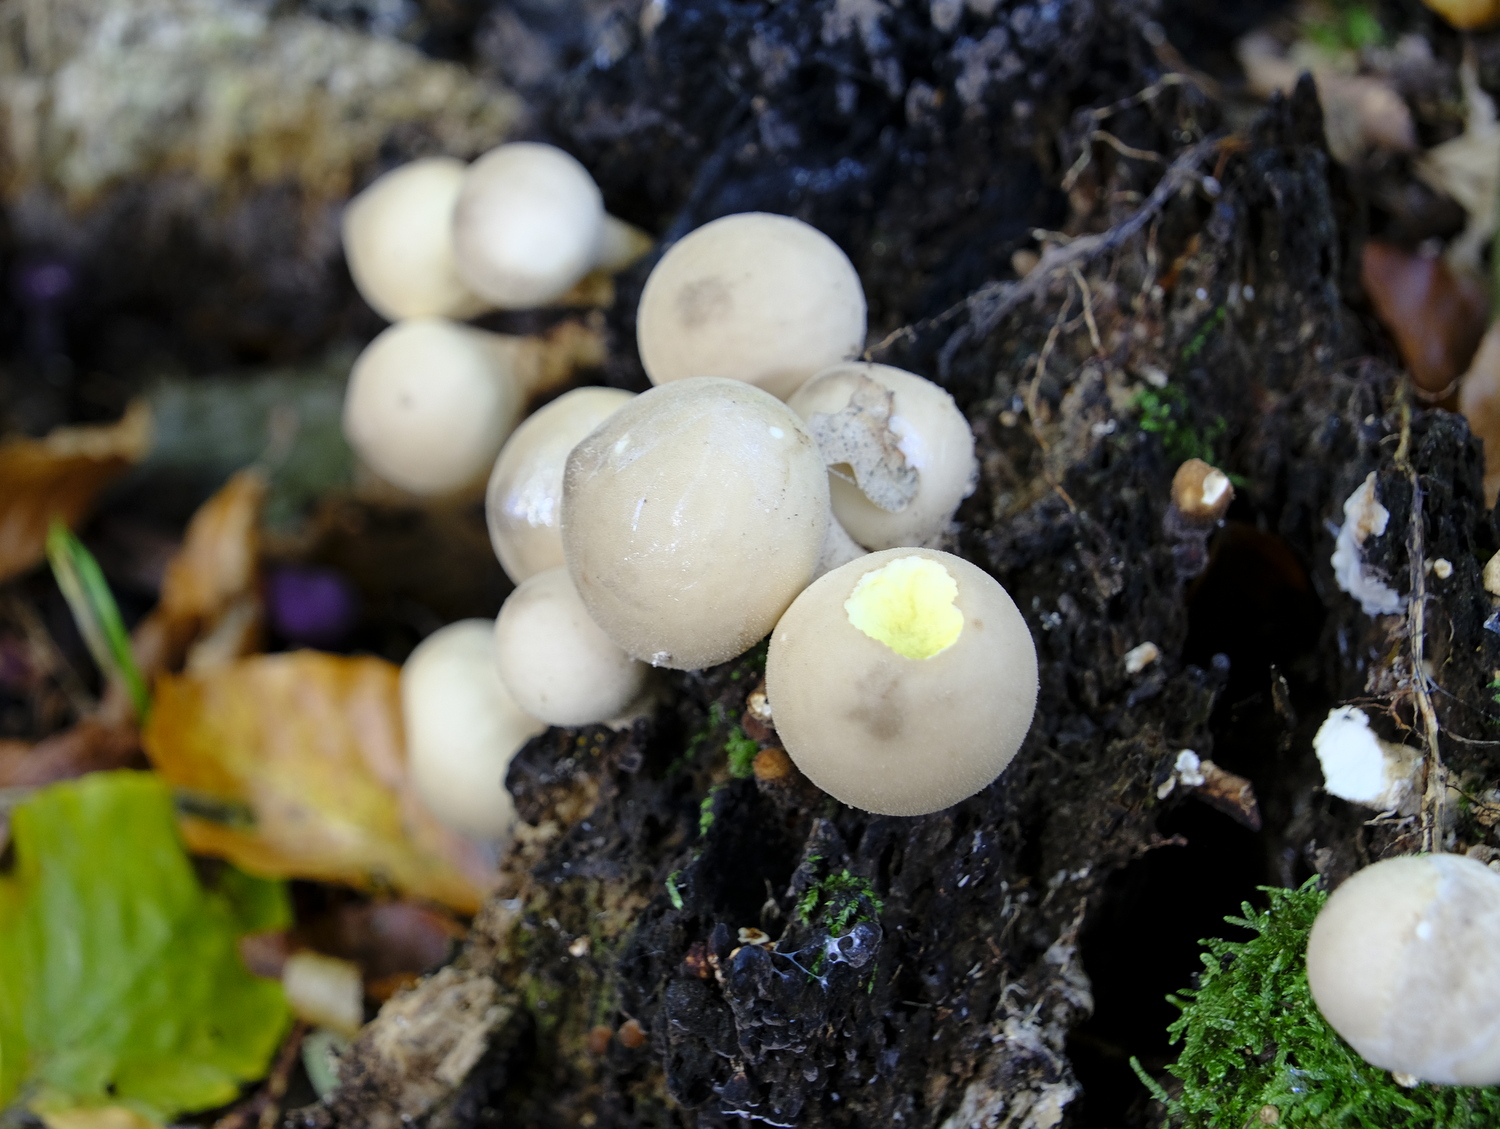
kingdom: Fungi
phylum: Basidiomycota
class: Agaricomycetes
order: Agaricales
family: Lycoperdaceae
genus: Apioperdon
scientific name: Apioperdon pyriforme
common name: pære-støvbold
